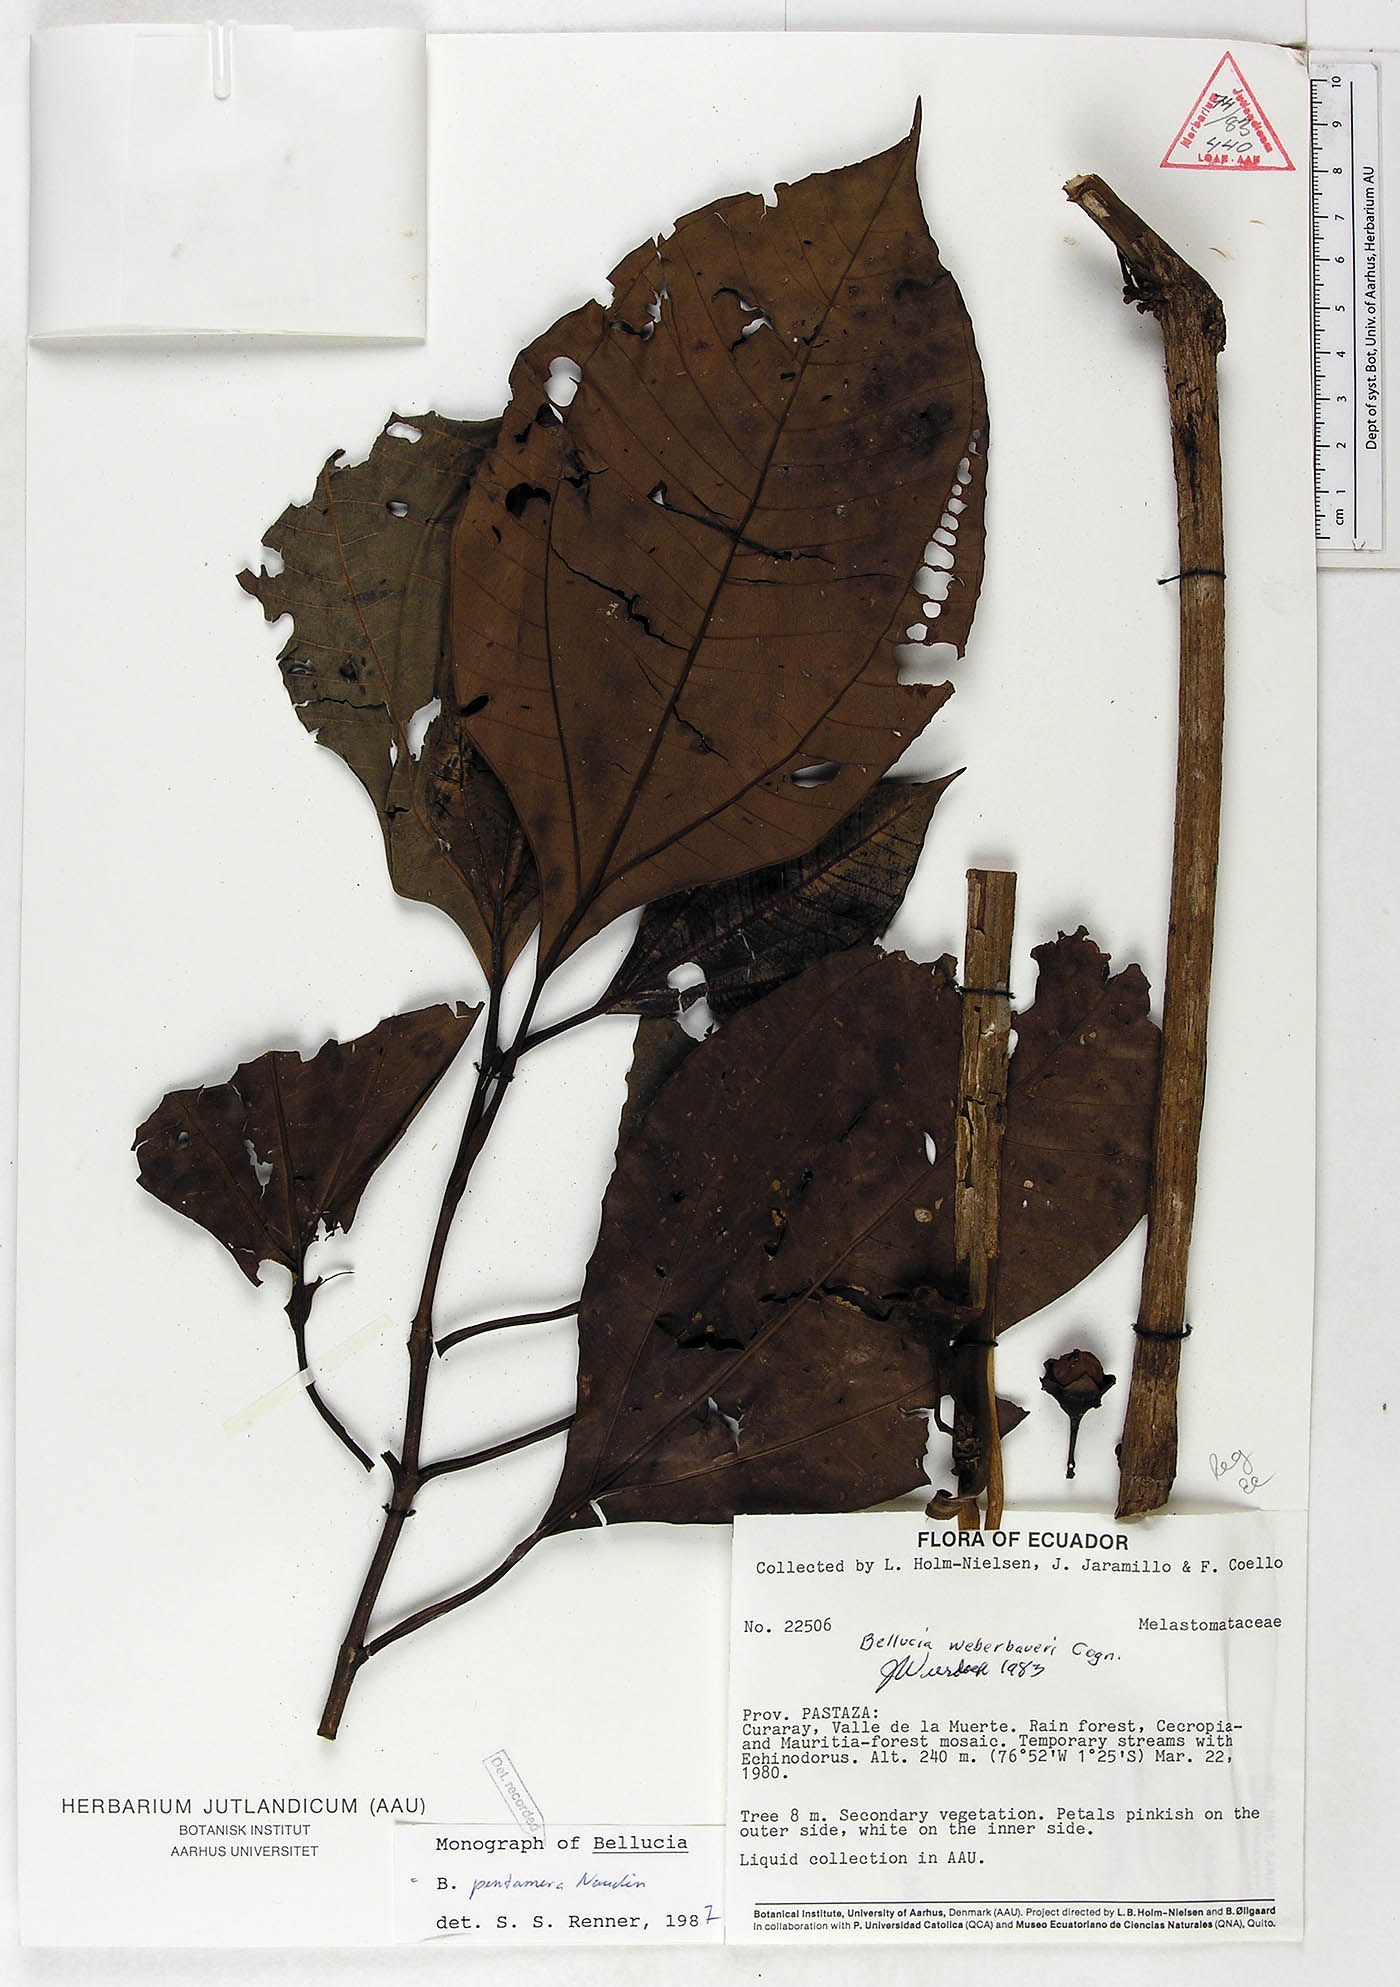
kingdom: Plantae
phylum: Tracheophyta
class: Magnoliopsida
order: Myrtales
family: Melastomataceae
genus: Bellucia
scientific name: Bellucia pentamera
